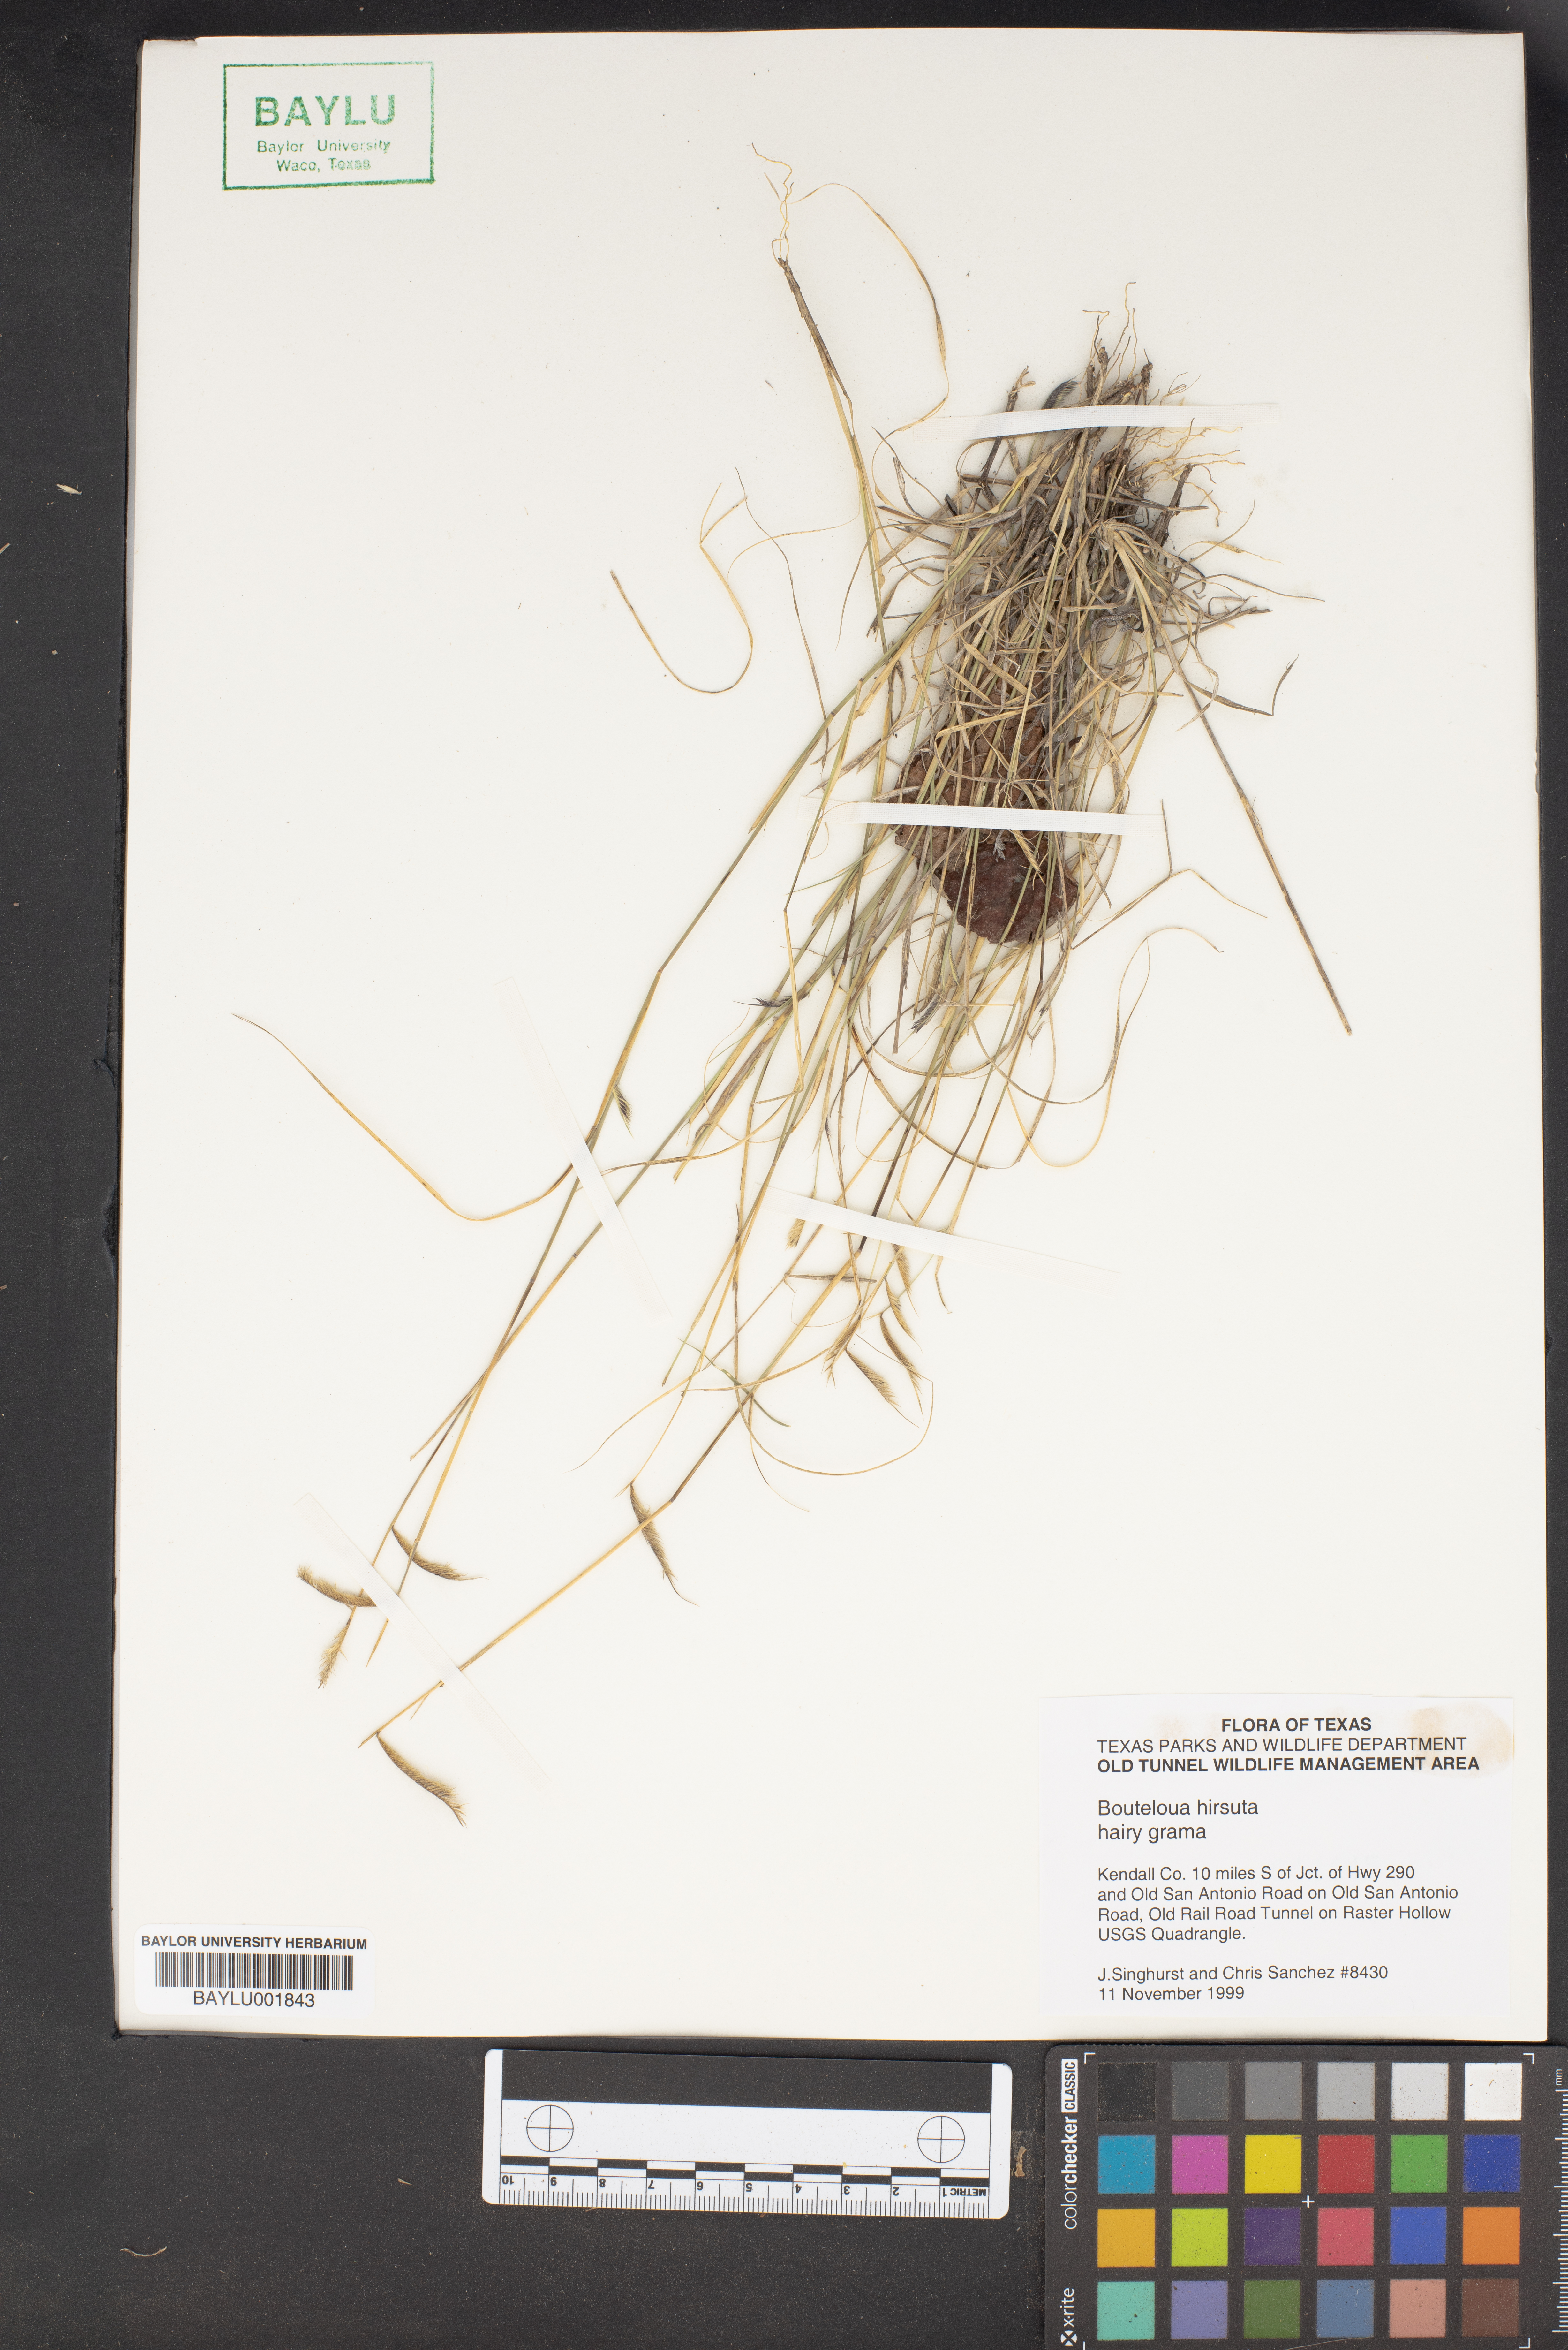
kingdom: Plantae
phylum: Tracheophyta
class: Liliopsida
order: Poales
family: Poaceae
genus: Bouteloua
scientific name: Bouteloua hirsuta
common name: Hairy grama
